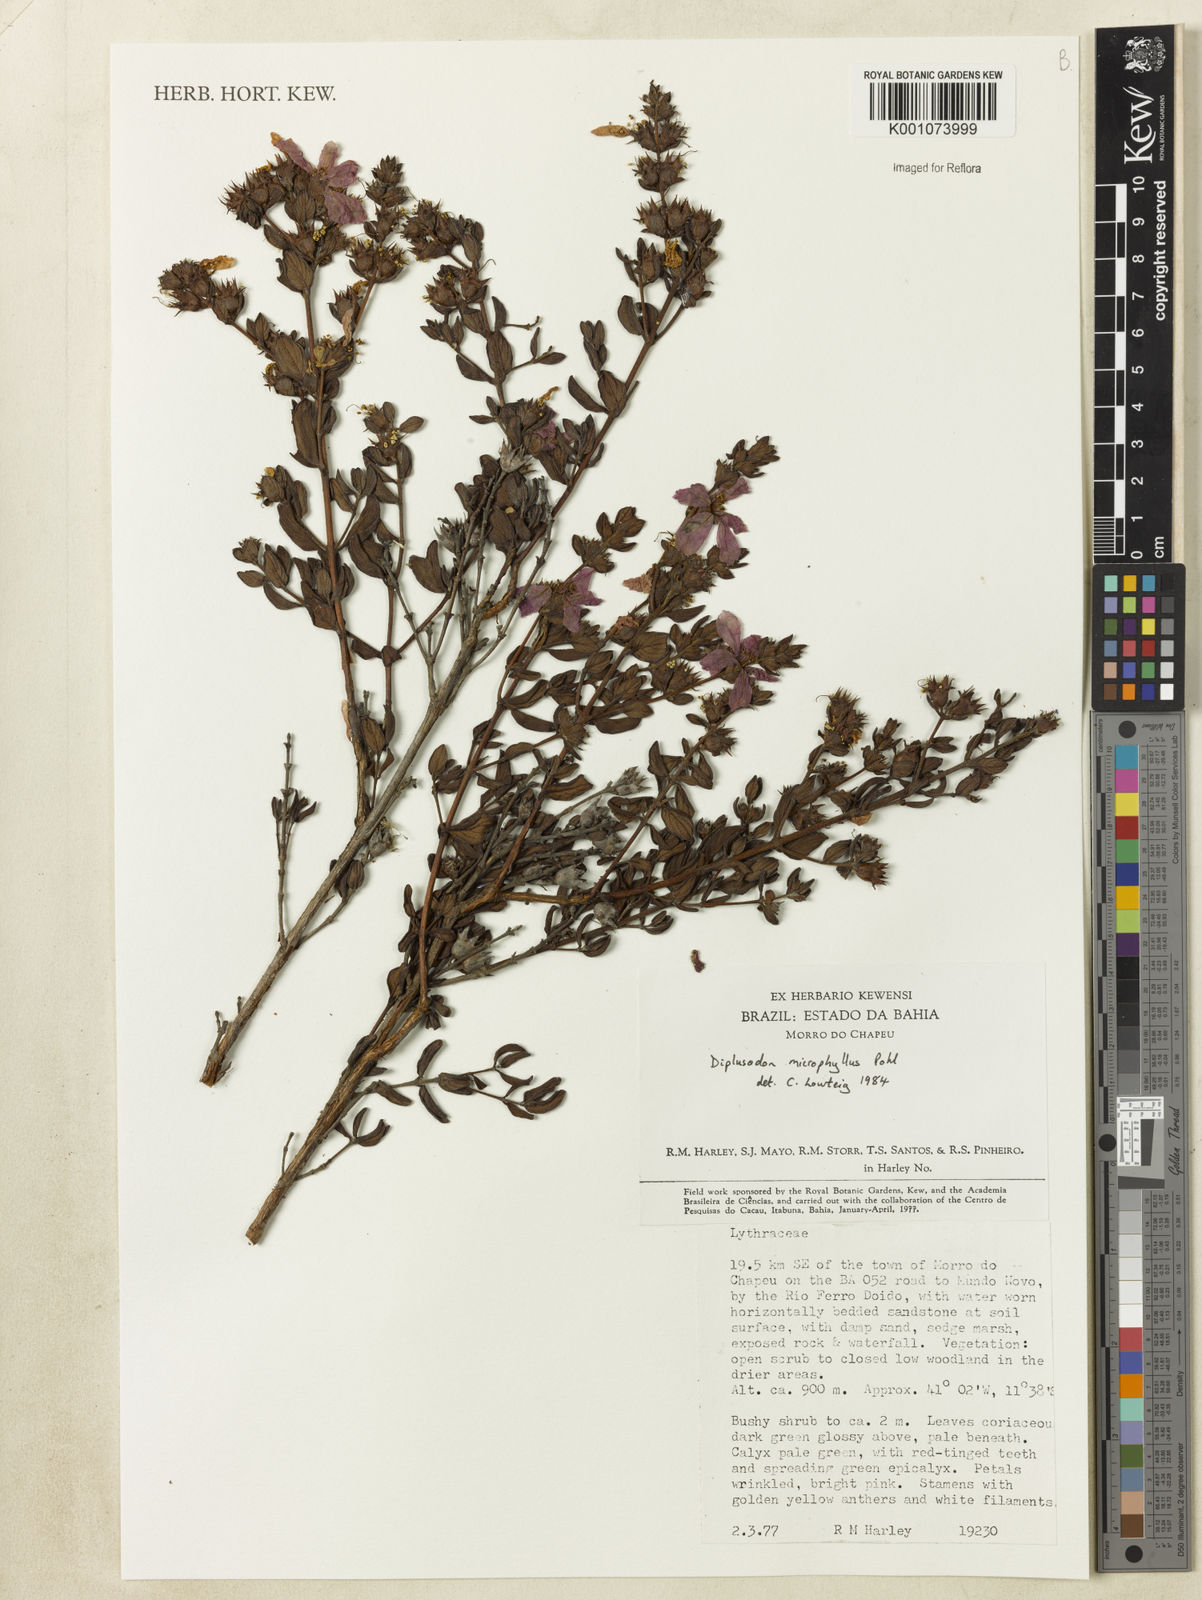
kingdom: Plantae
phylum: Tracheophyta
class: Magnoliopsida
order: Myrtales
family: Lythraceae
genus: Cuphea
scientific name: Cuphea ciliata
